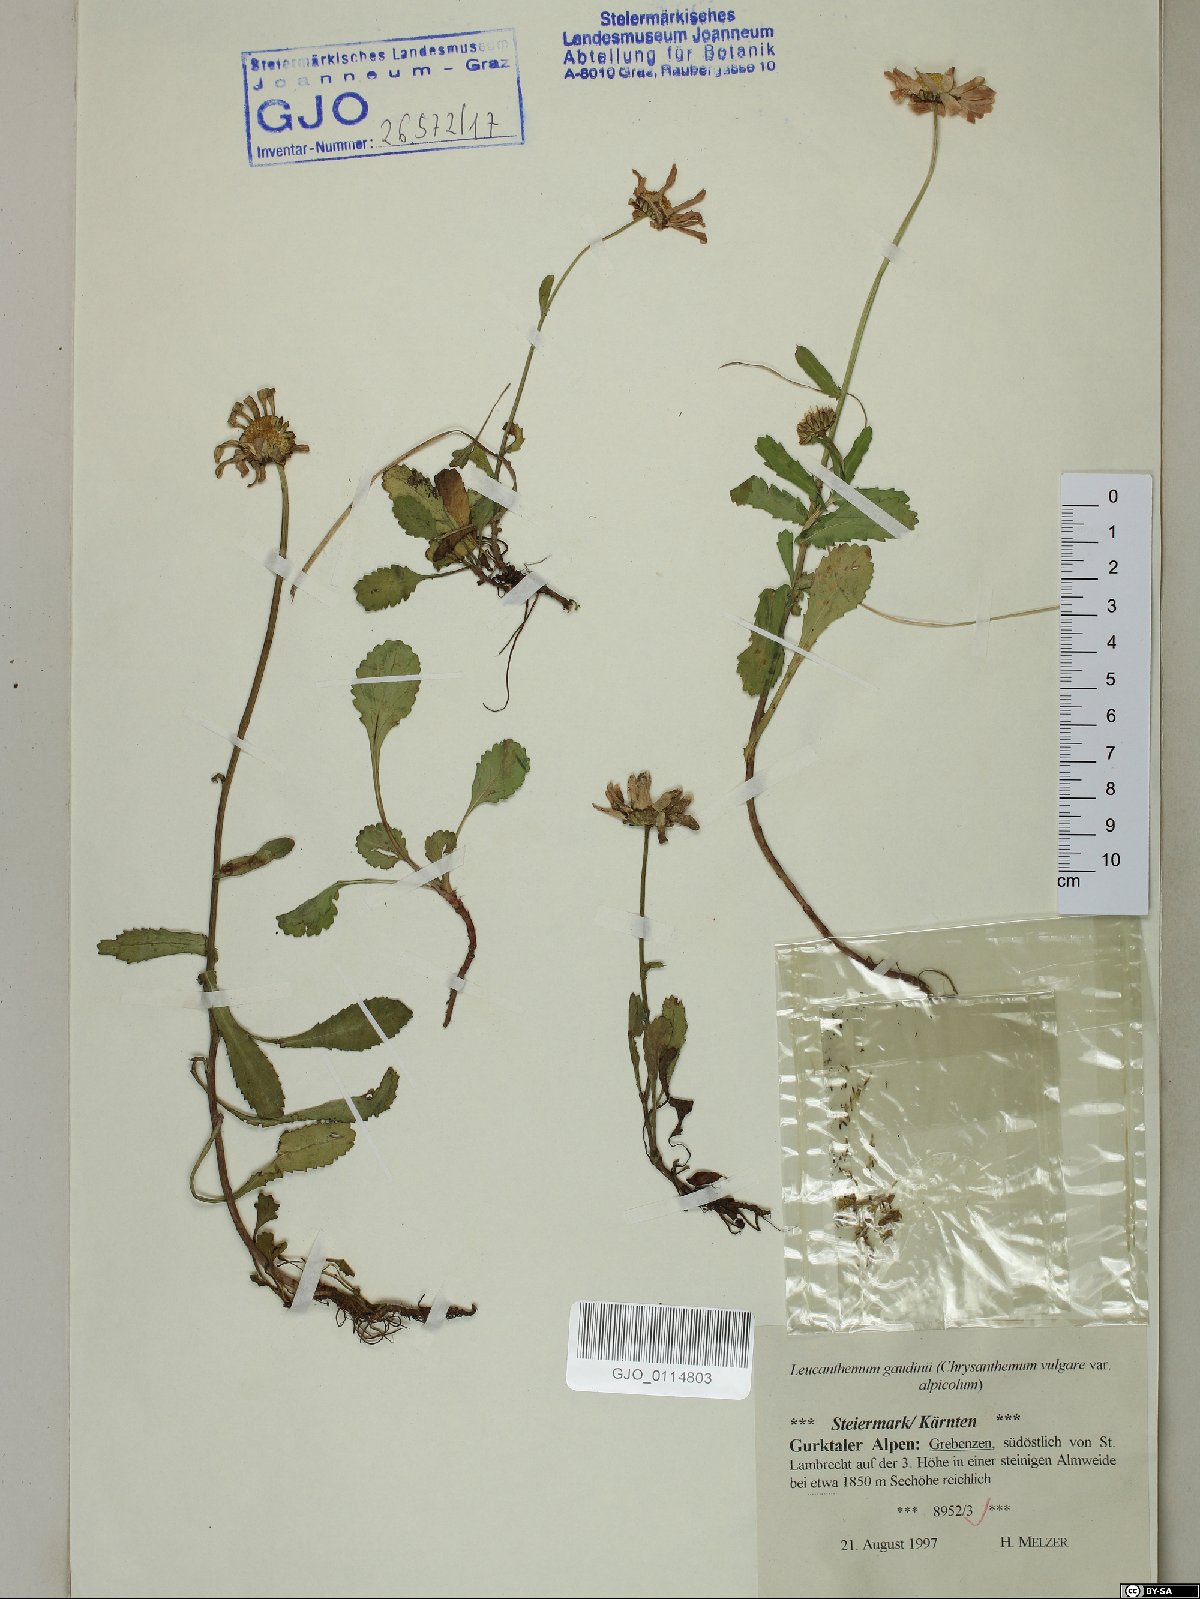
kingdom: Plantae
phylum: Tracheophyta
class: Magnoliopsida
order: Asterales
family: Asteraceae
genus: Leucanthemum
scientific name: Leucanthemum gaudinii
